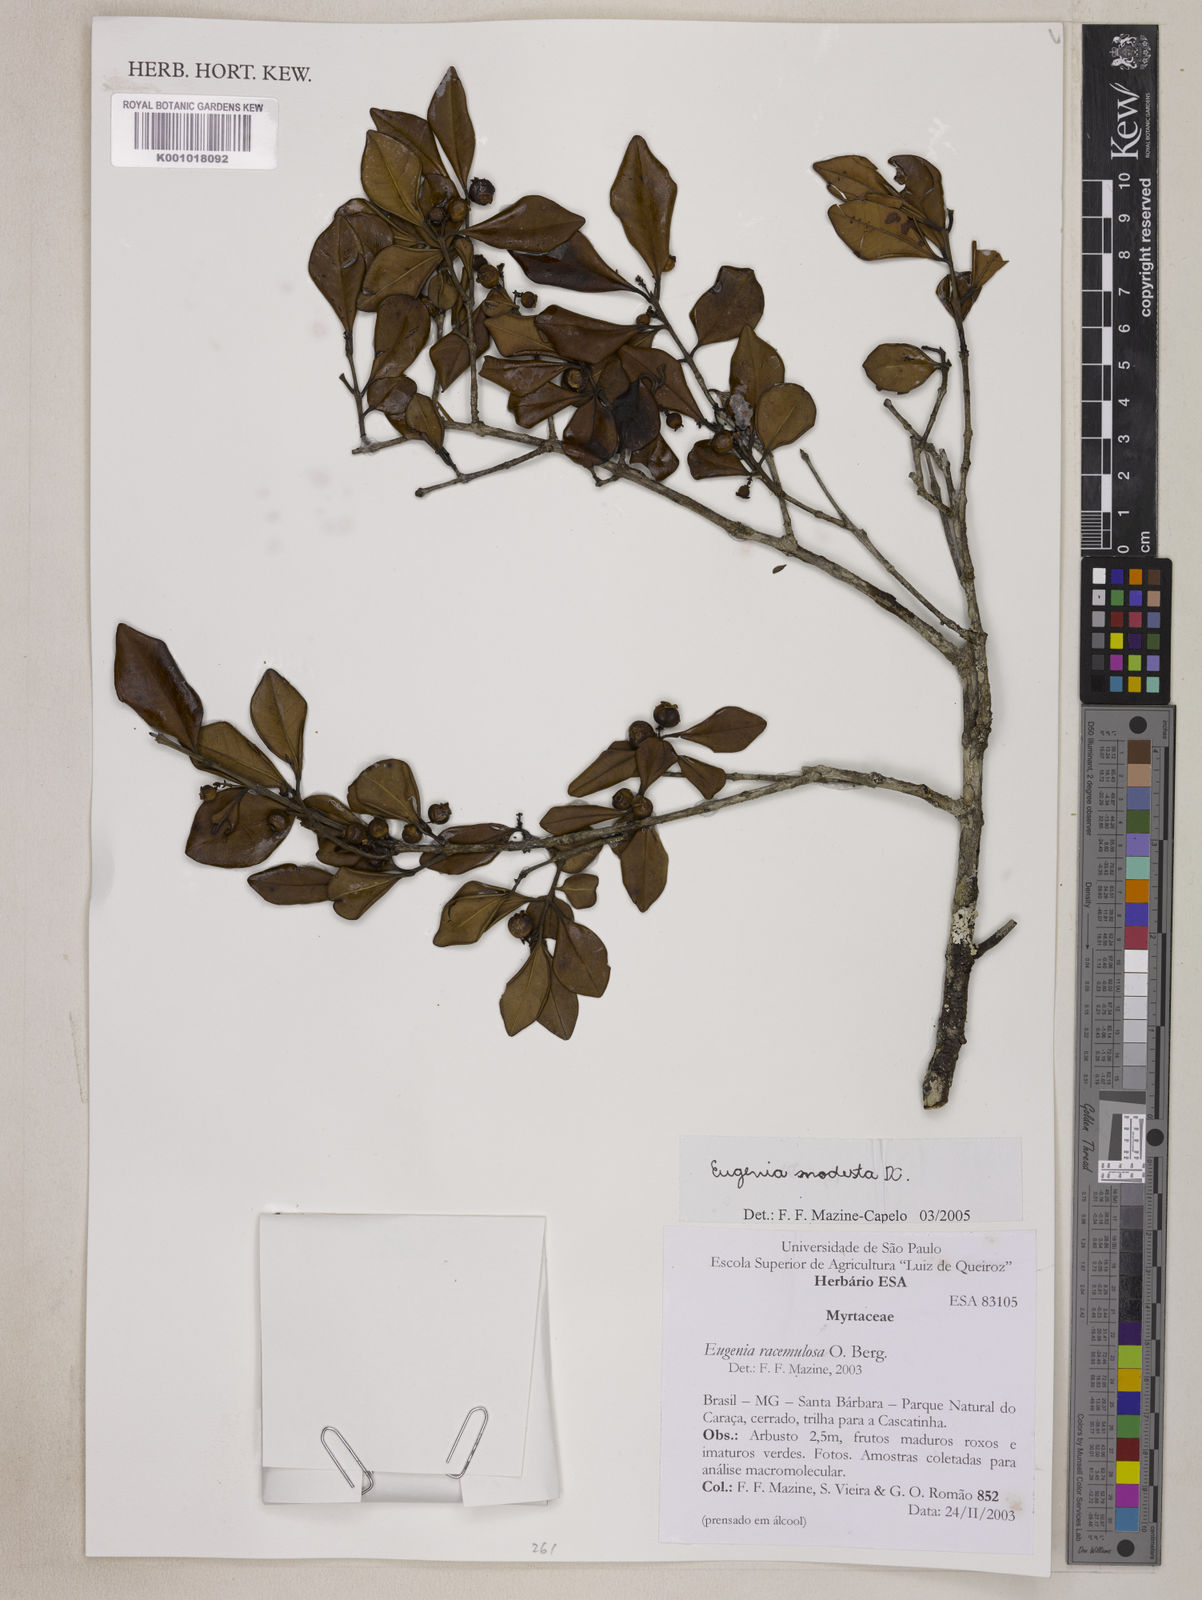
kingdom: Plantae
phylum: Tracheophyta
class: Magnoliopsida
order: Myrtales
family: Myrtaceae
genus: Eugenia
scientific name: Eugenia modesta
